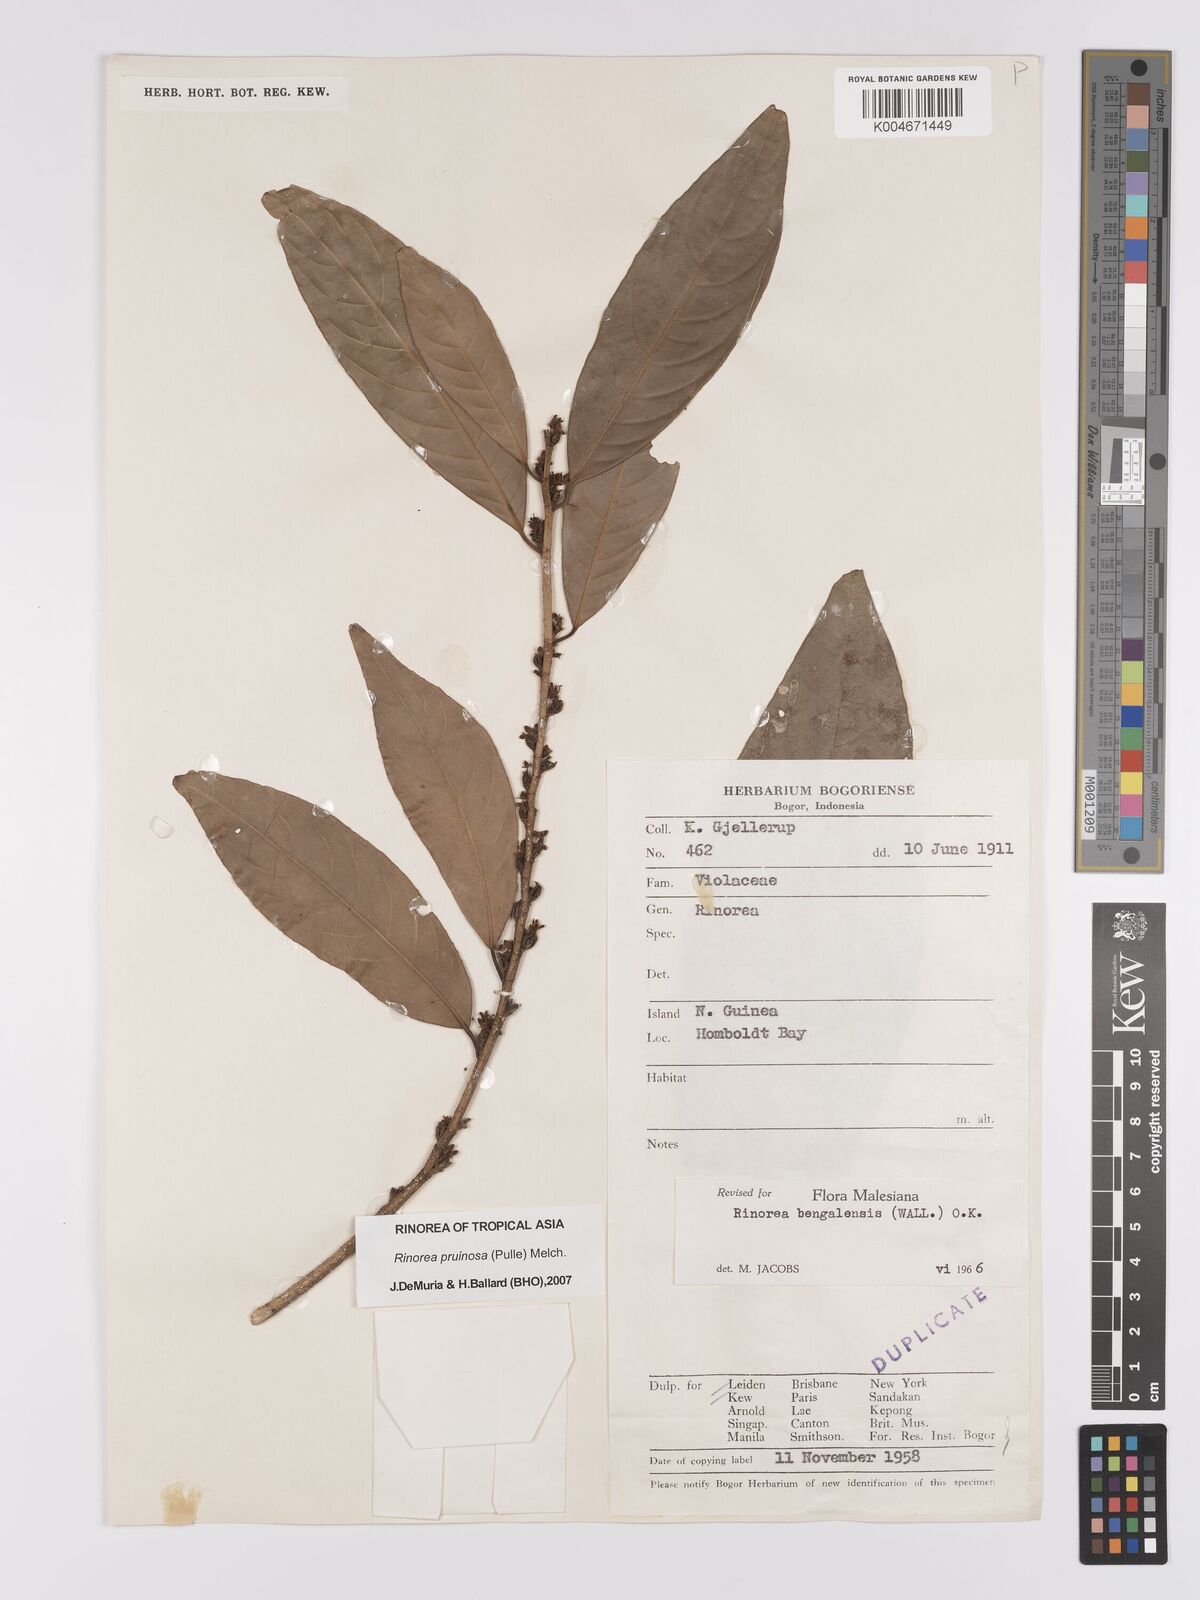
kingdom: Plantae
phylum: Tracheophyta
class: Magnoliopsida
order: Malpighiales
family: Violaceae
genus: Rinorea
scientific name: Rinorea pruinosa
